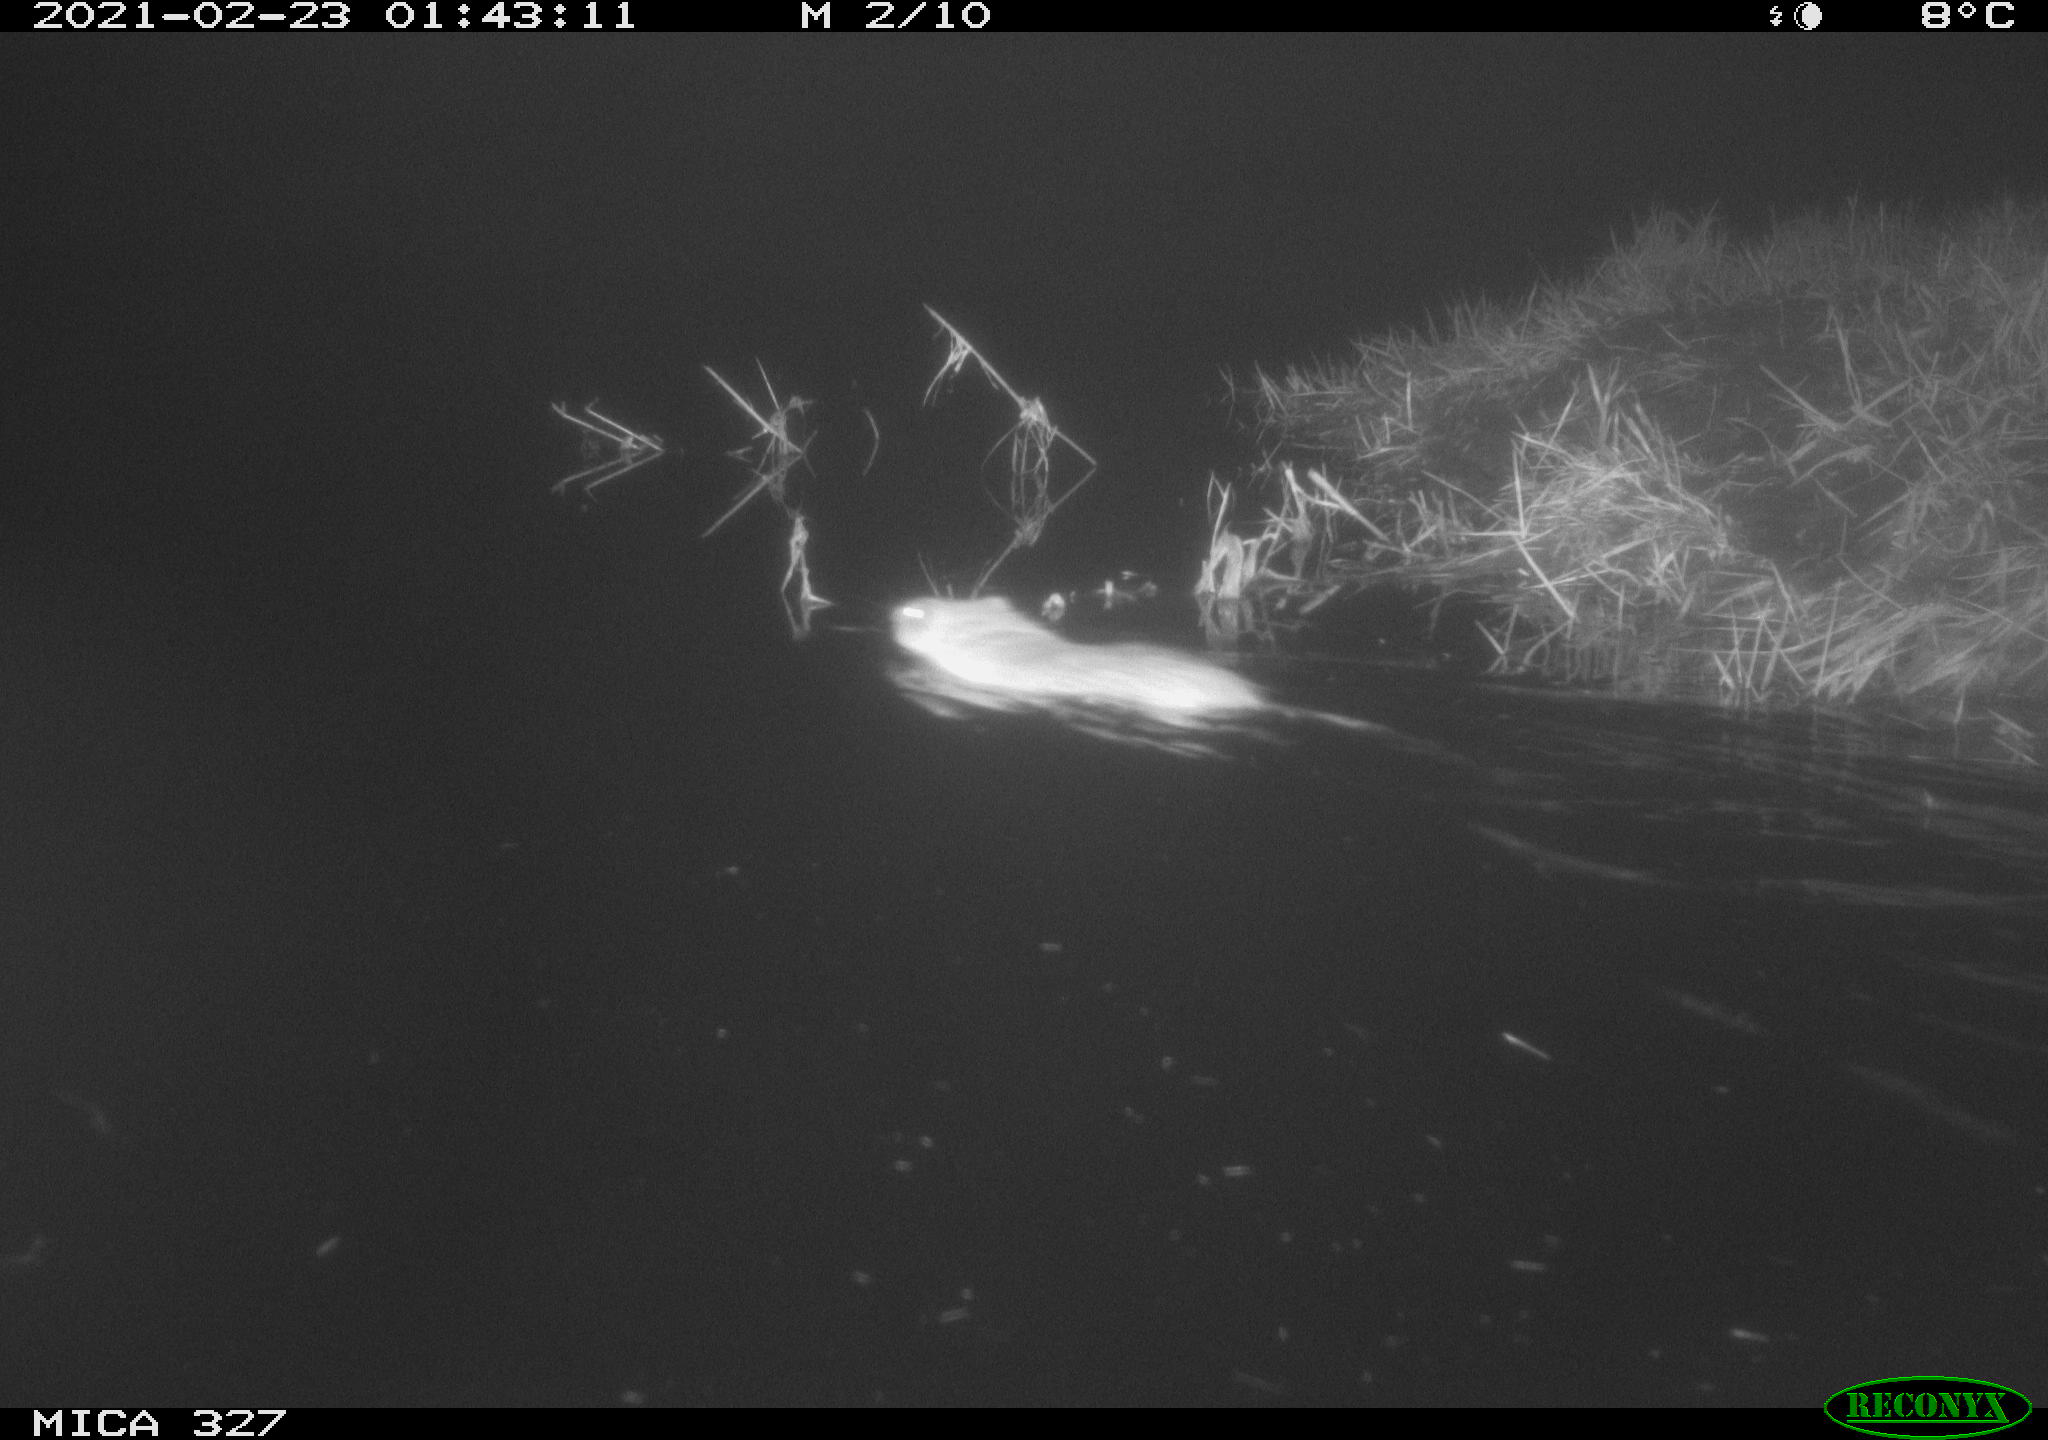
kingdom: Animalia
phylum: Chordata
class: Mammalia
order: Rodentia
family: Cricetidae
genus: Ondatra
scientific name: Ondatra zibethicus
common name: Muskrat
